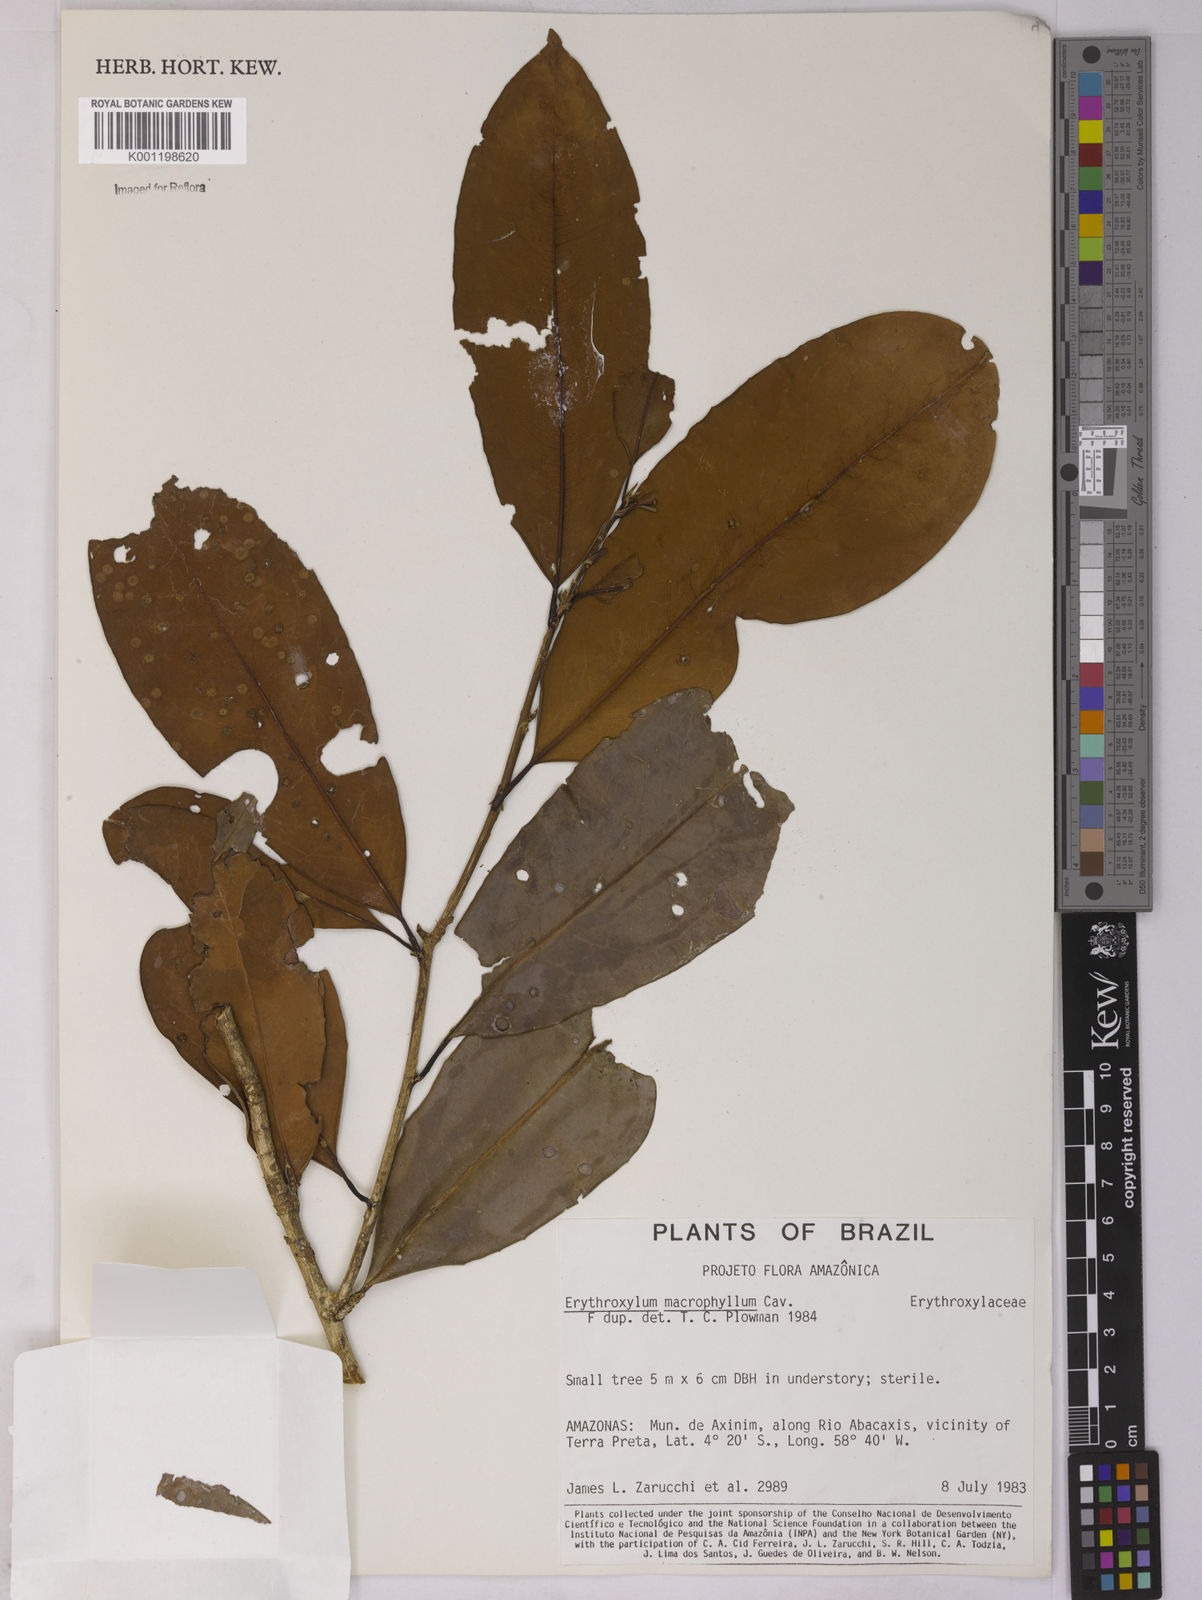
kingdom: Plantae
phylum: Tracheophyta
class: Magnoliopsida
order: Malpighiales
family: Erythroxylaceae
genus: Erythroxylum
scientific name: Erythroxylum macrophyllum
